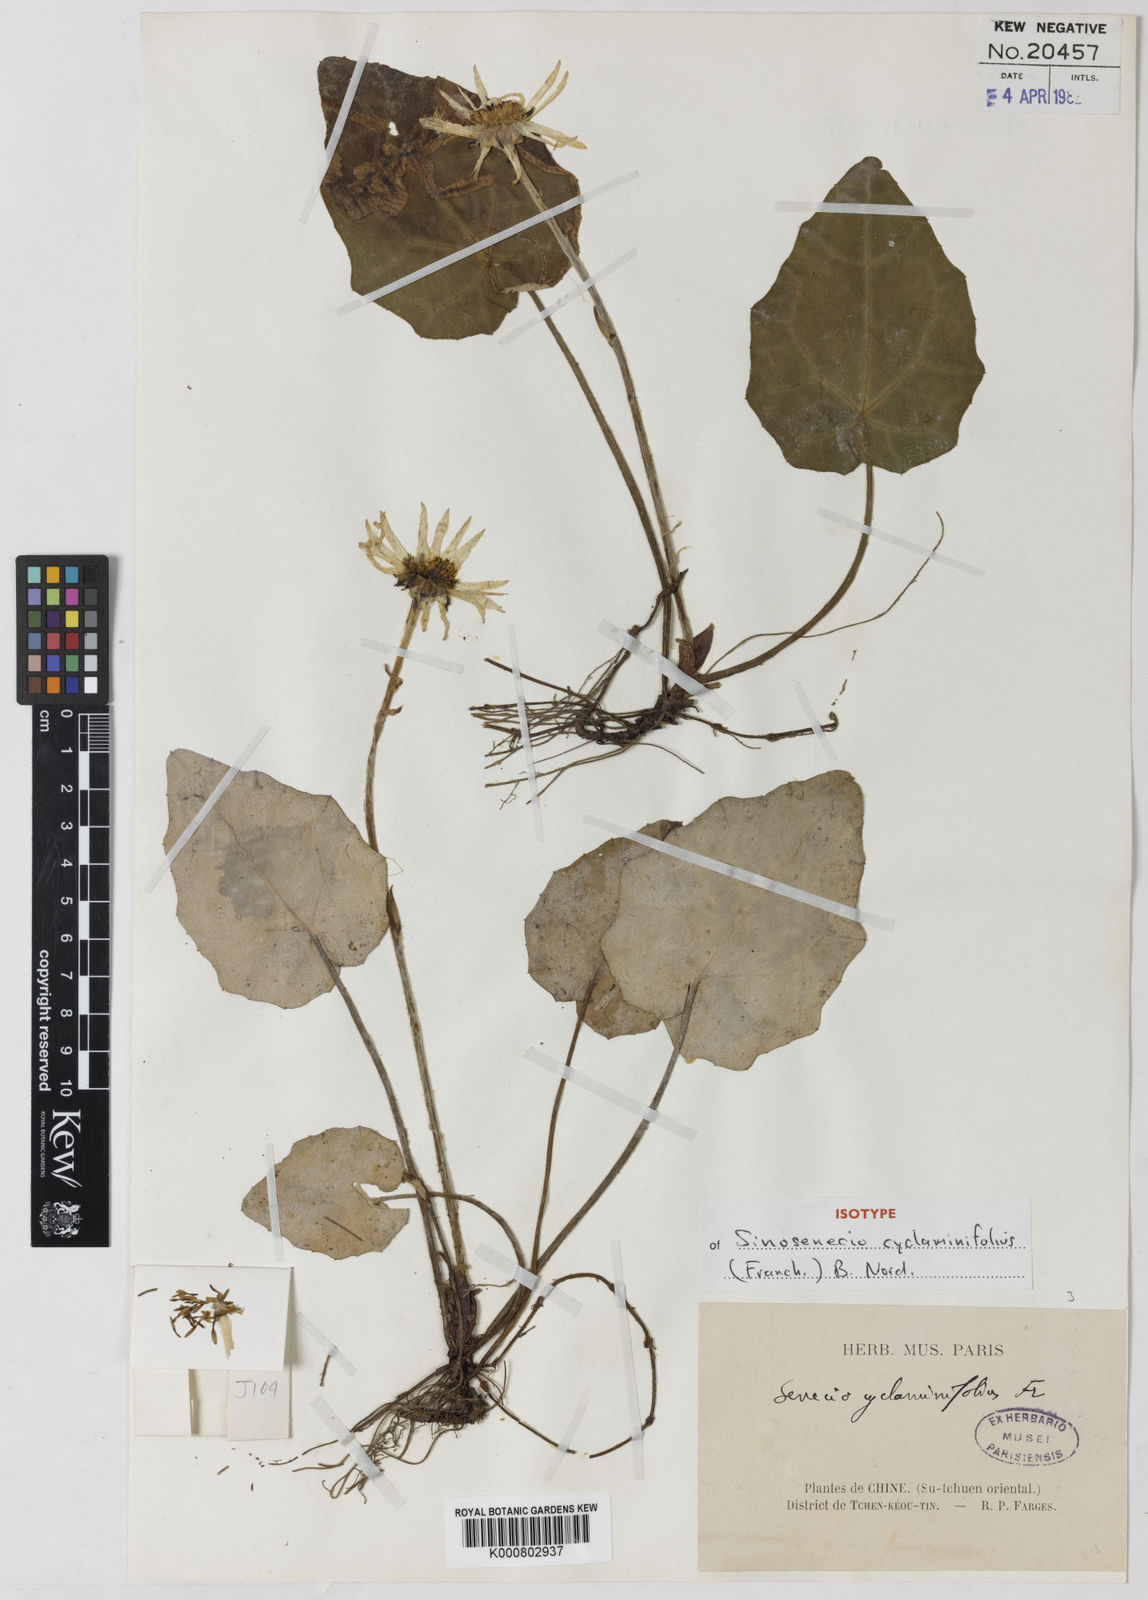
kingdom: Plantae
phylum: Tracheophyta
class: Magnoliopsida
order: Asterales
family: Asteraceae
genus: Sinosenecio
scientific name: Sinosenecio cyclaminifolius
